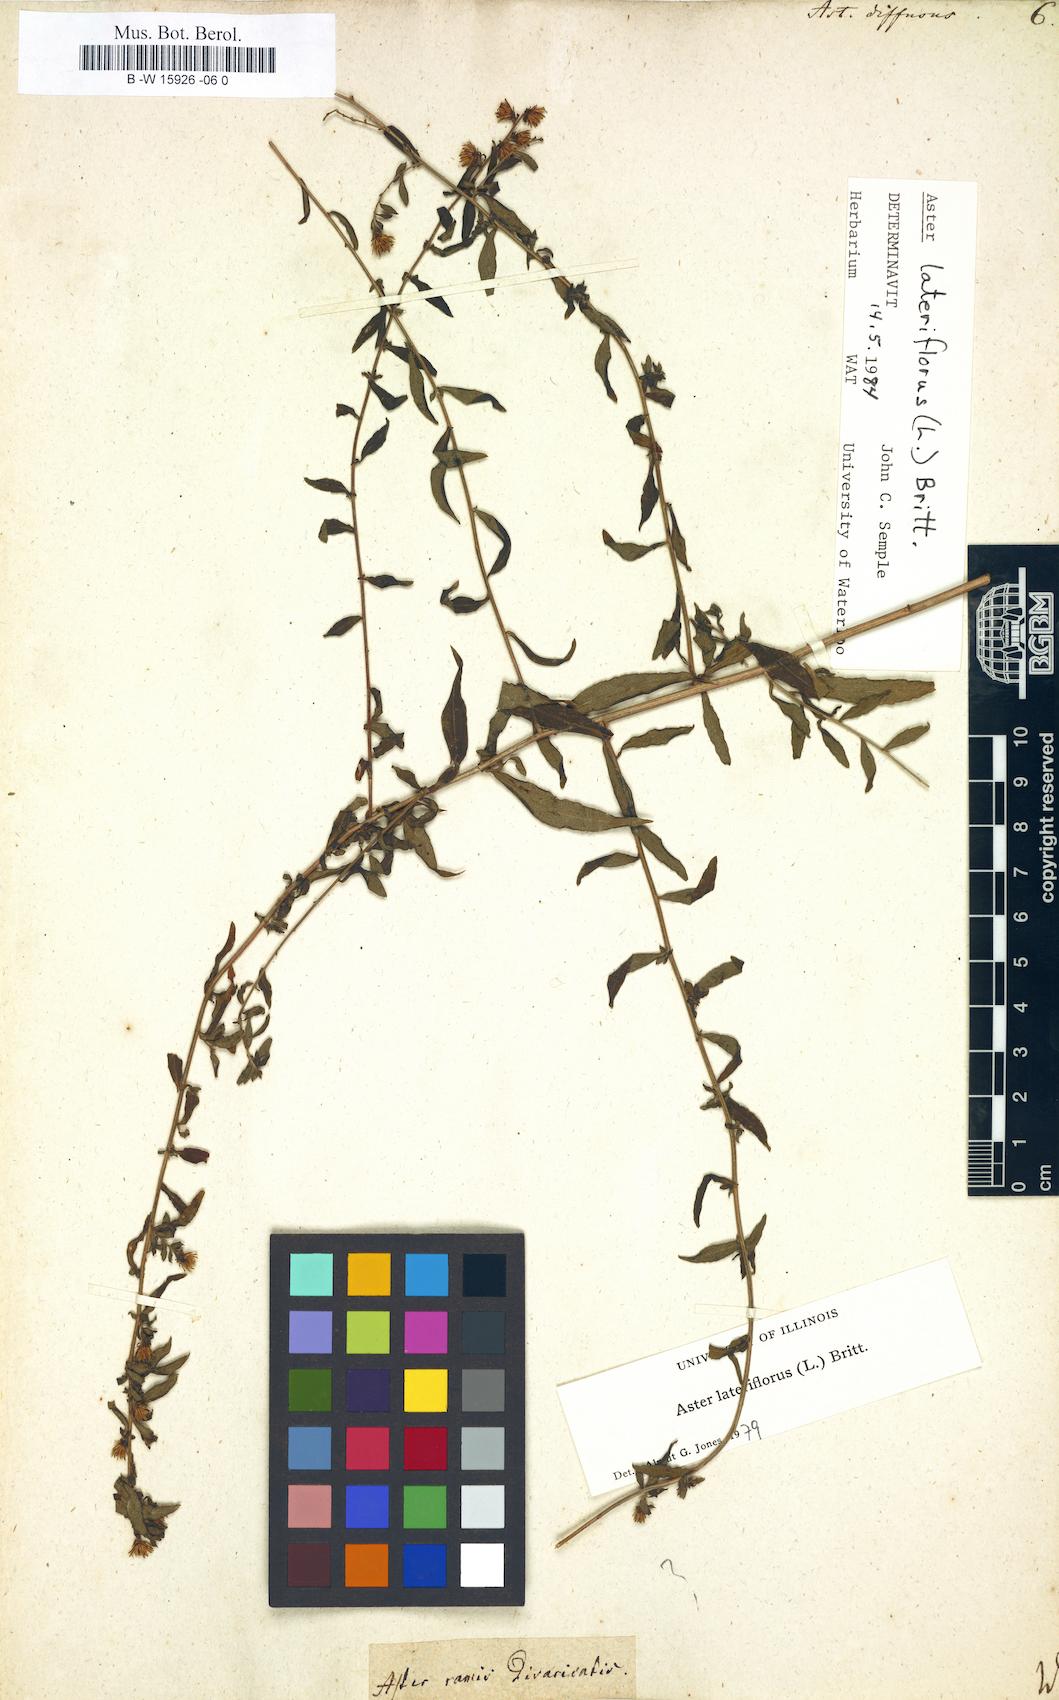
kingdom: Plantae
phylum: Tracheophyta
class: Magnoliopsida
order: Asterales
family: Asteraceae
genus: Aster
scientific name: Aster diffusus
